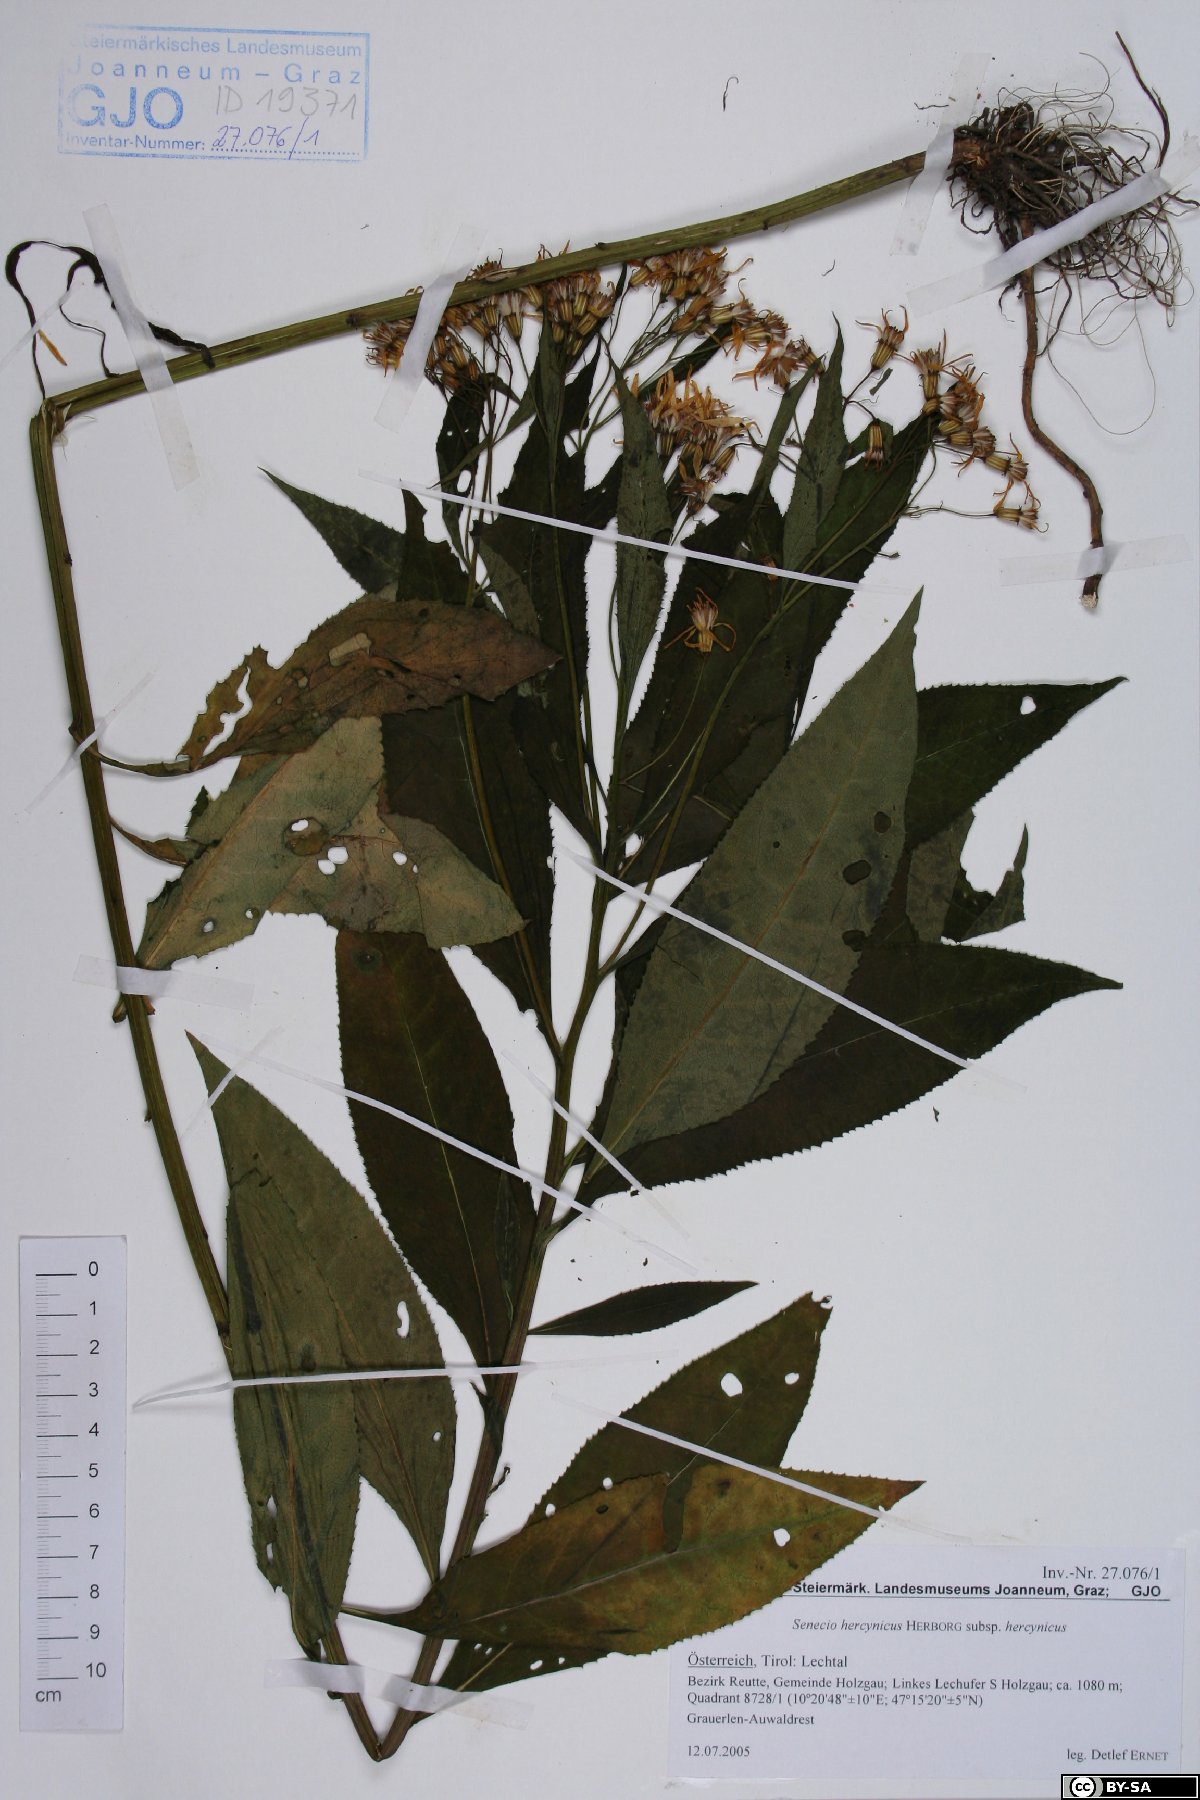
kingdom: Plantae
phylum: Tracheophyta
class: Magnoliopsida
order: Asterales
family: Asteraceae
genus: Senecio
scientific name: Senecio hercynicus
